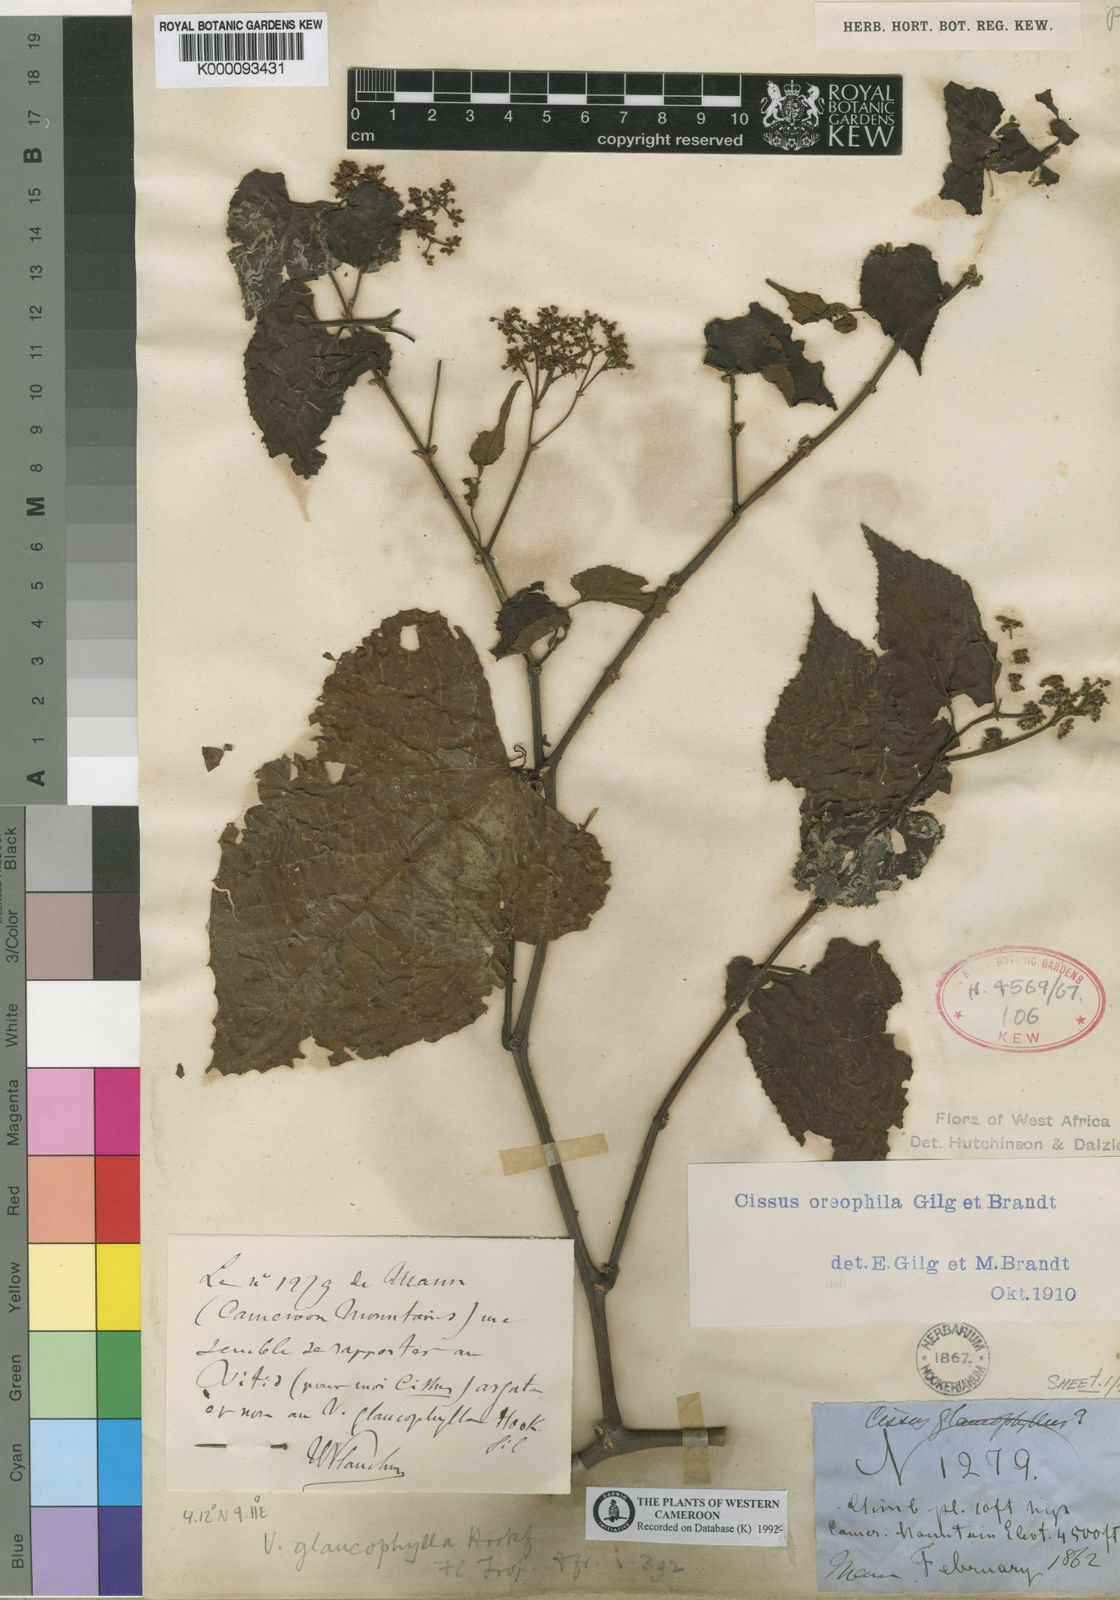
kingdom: Plantae
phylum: Tracheophyta
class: Magnoliopsida
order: Vitales
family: Vitaceae
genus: Cissus
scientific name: Cissus oreophila
